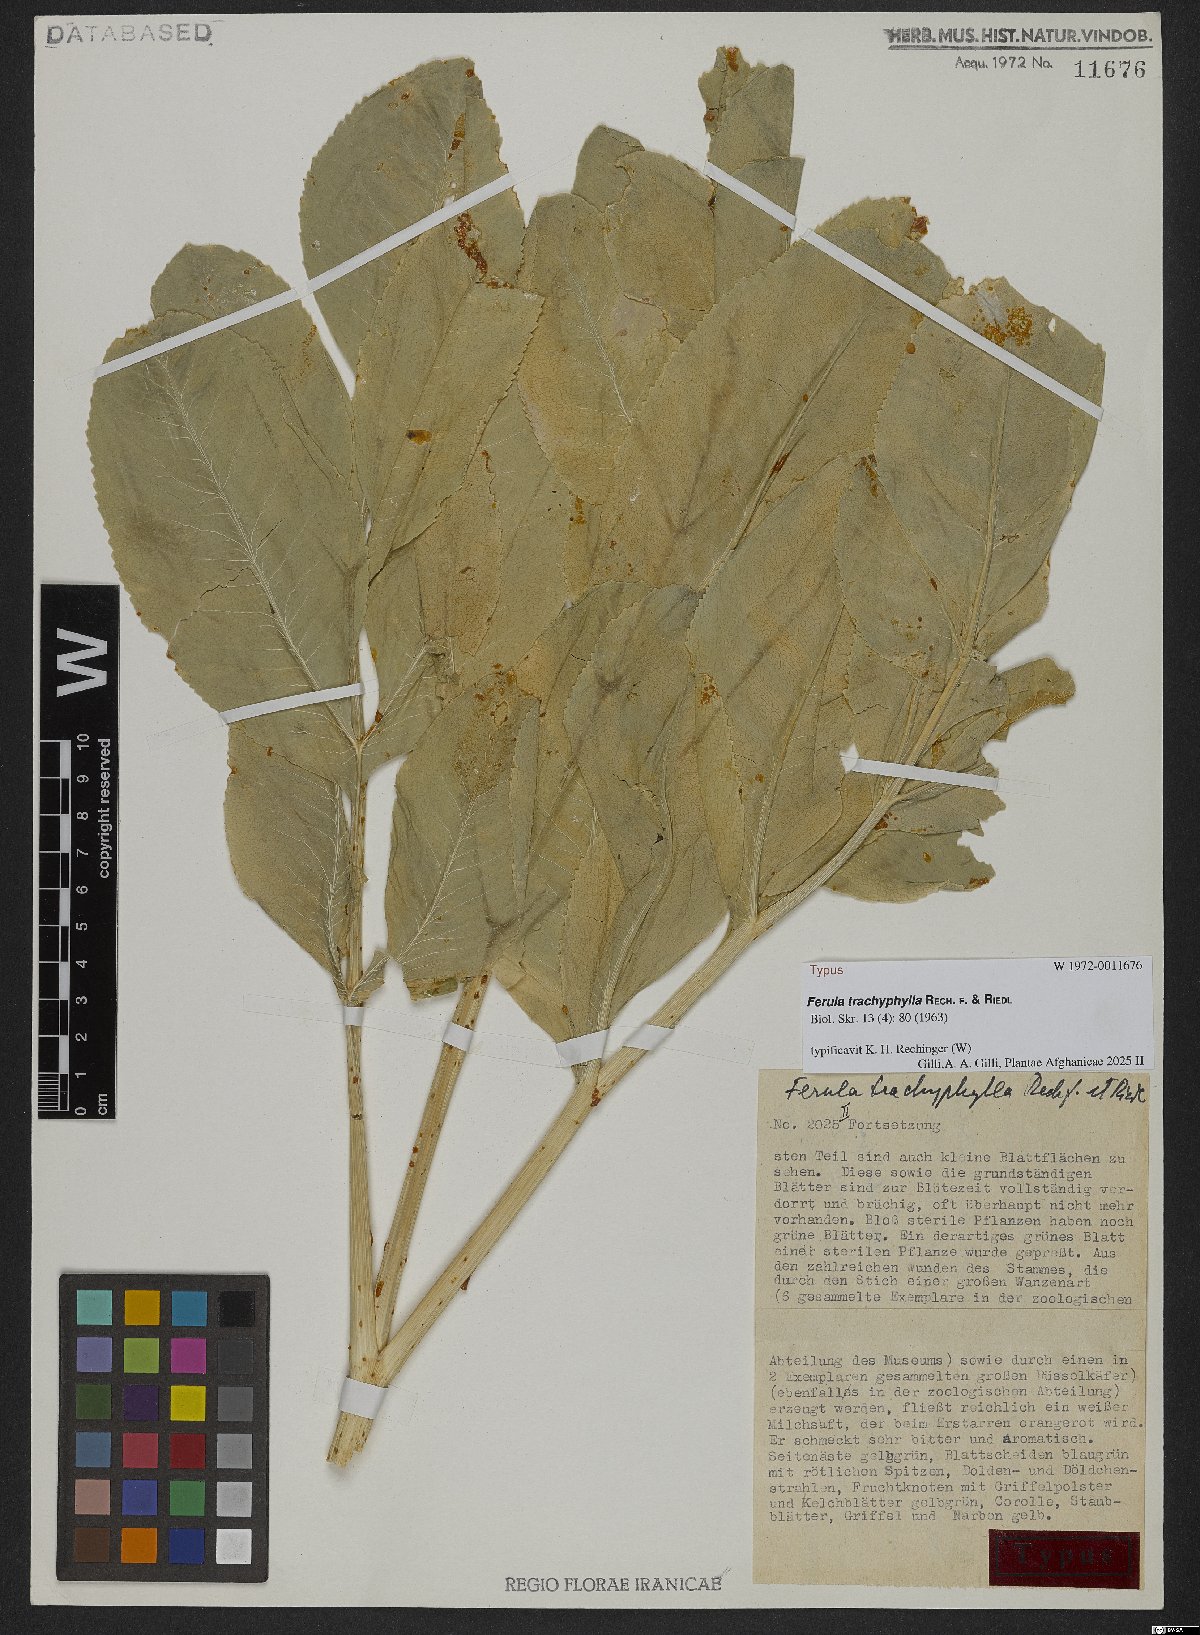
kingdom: Plantae
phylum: Tracheophyta
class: Magnoliopsida
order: Apiales
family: Apiaceae
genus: Ferula
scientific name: Ferula trachyphylla
